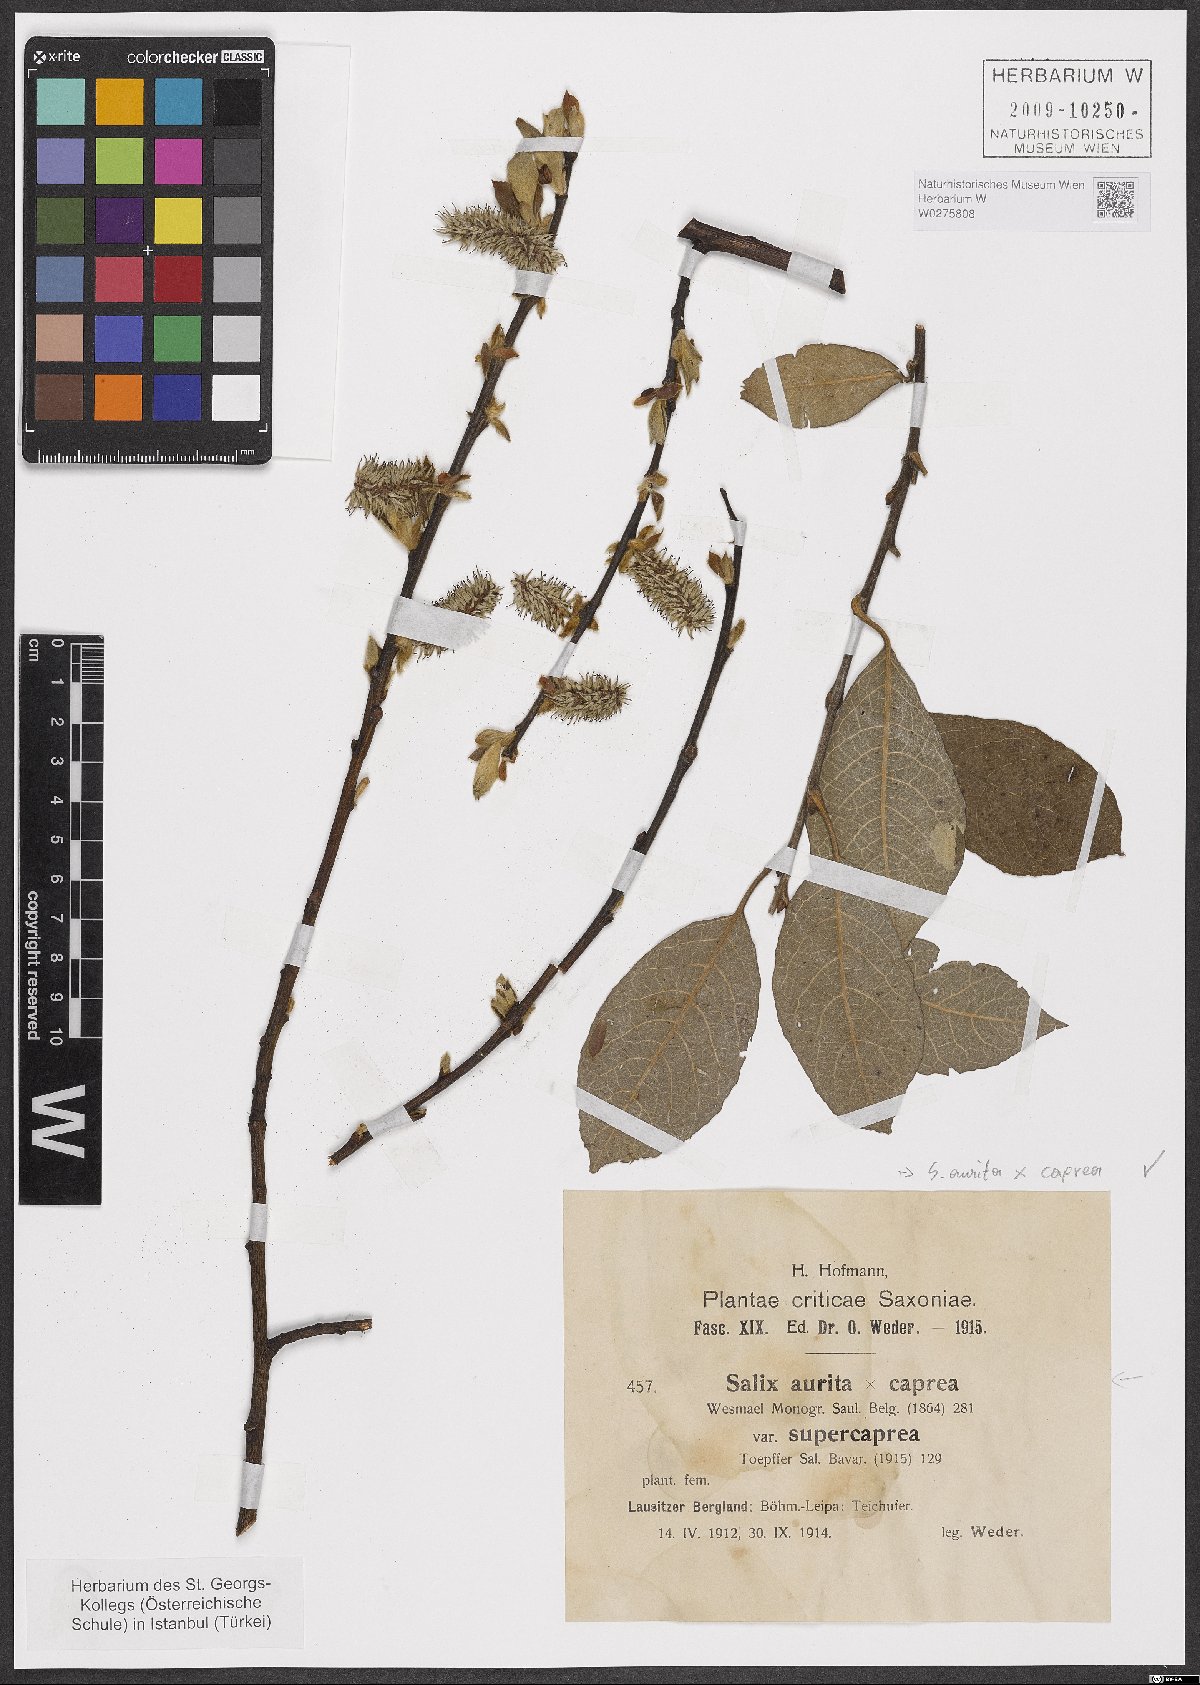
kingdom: Plantae
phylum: Tracheophyta
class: Magnoliopsida
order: Malpighiales
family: Salicaceae
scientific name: Salicaceae
